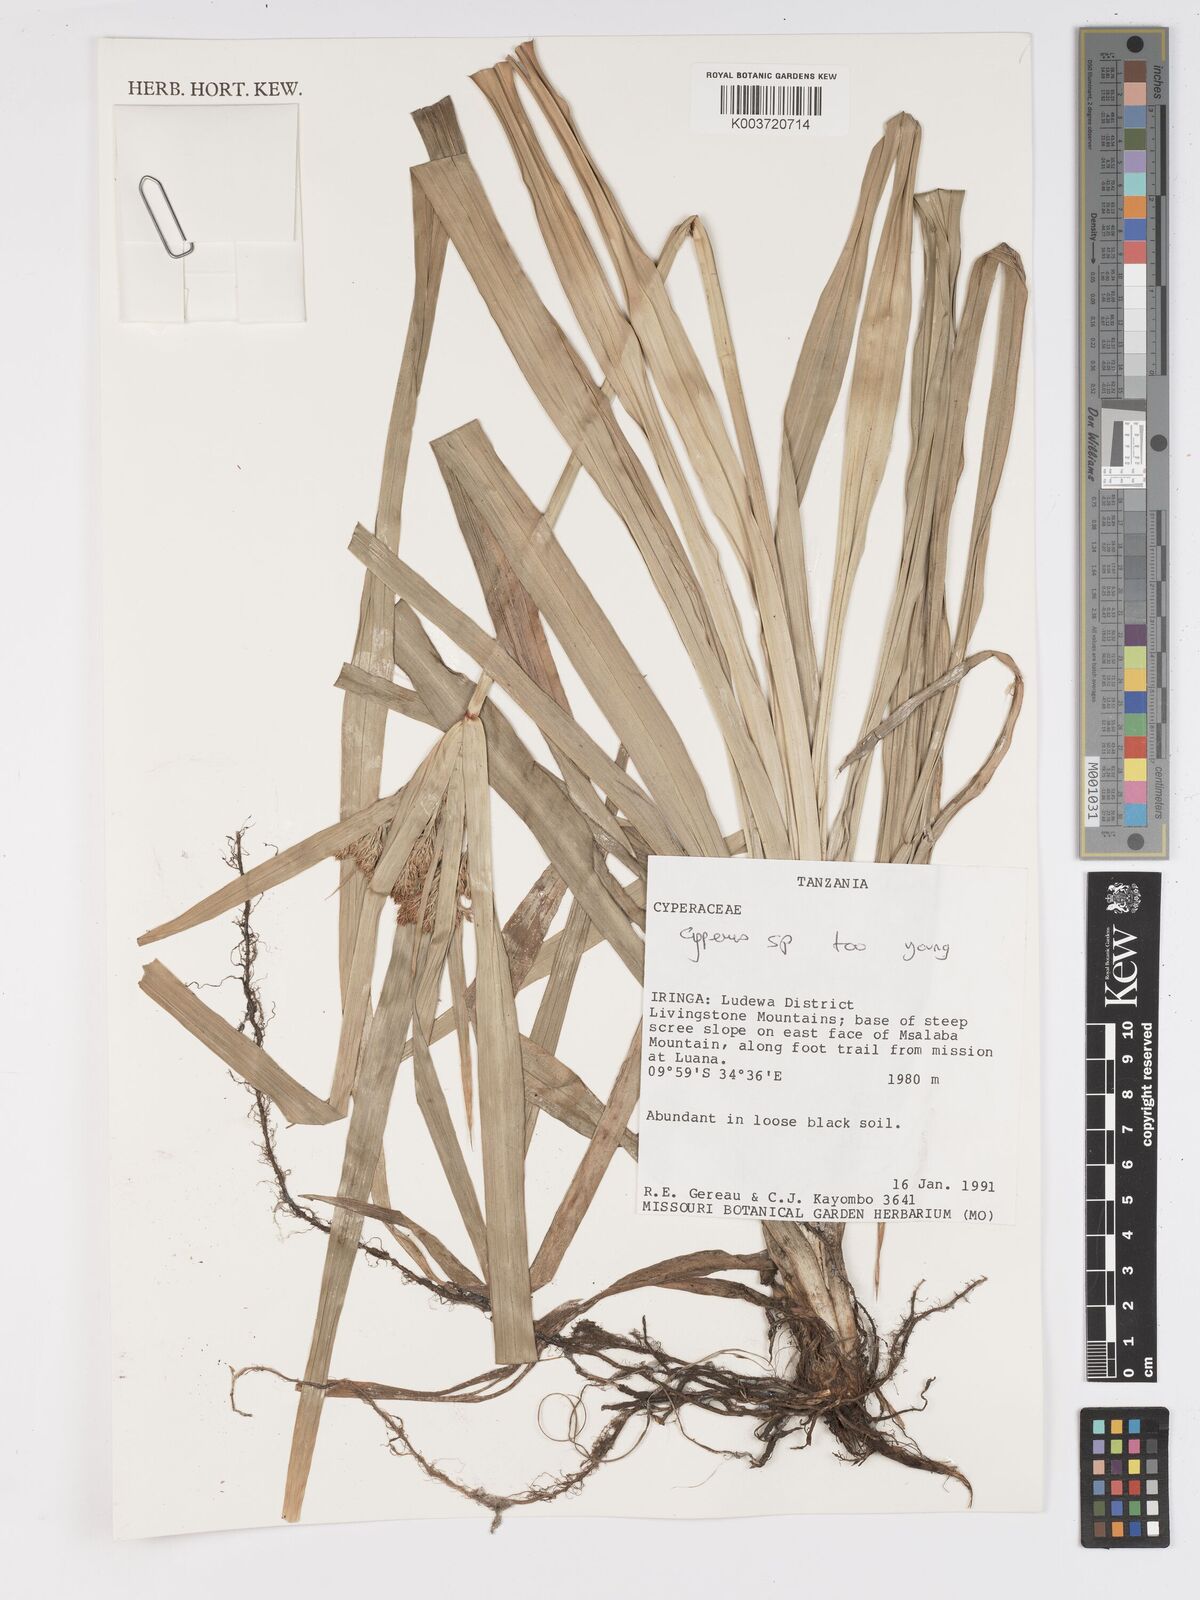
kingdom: Plantae
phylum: Tracheophyta
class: Liliopsida
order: Poales
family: Cyperaceae
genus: Cyperus
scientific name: Cyperus rohlfsii
